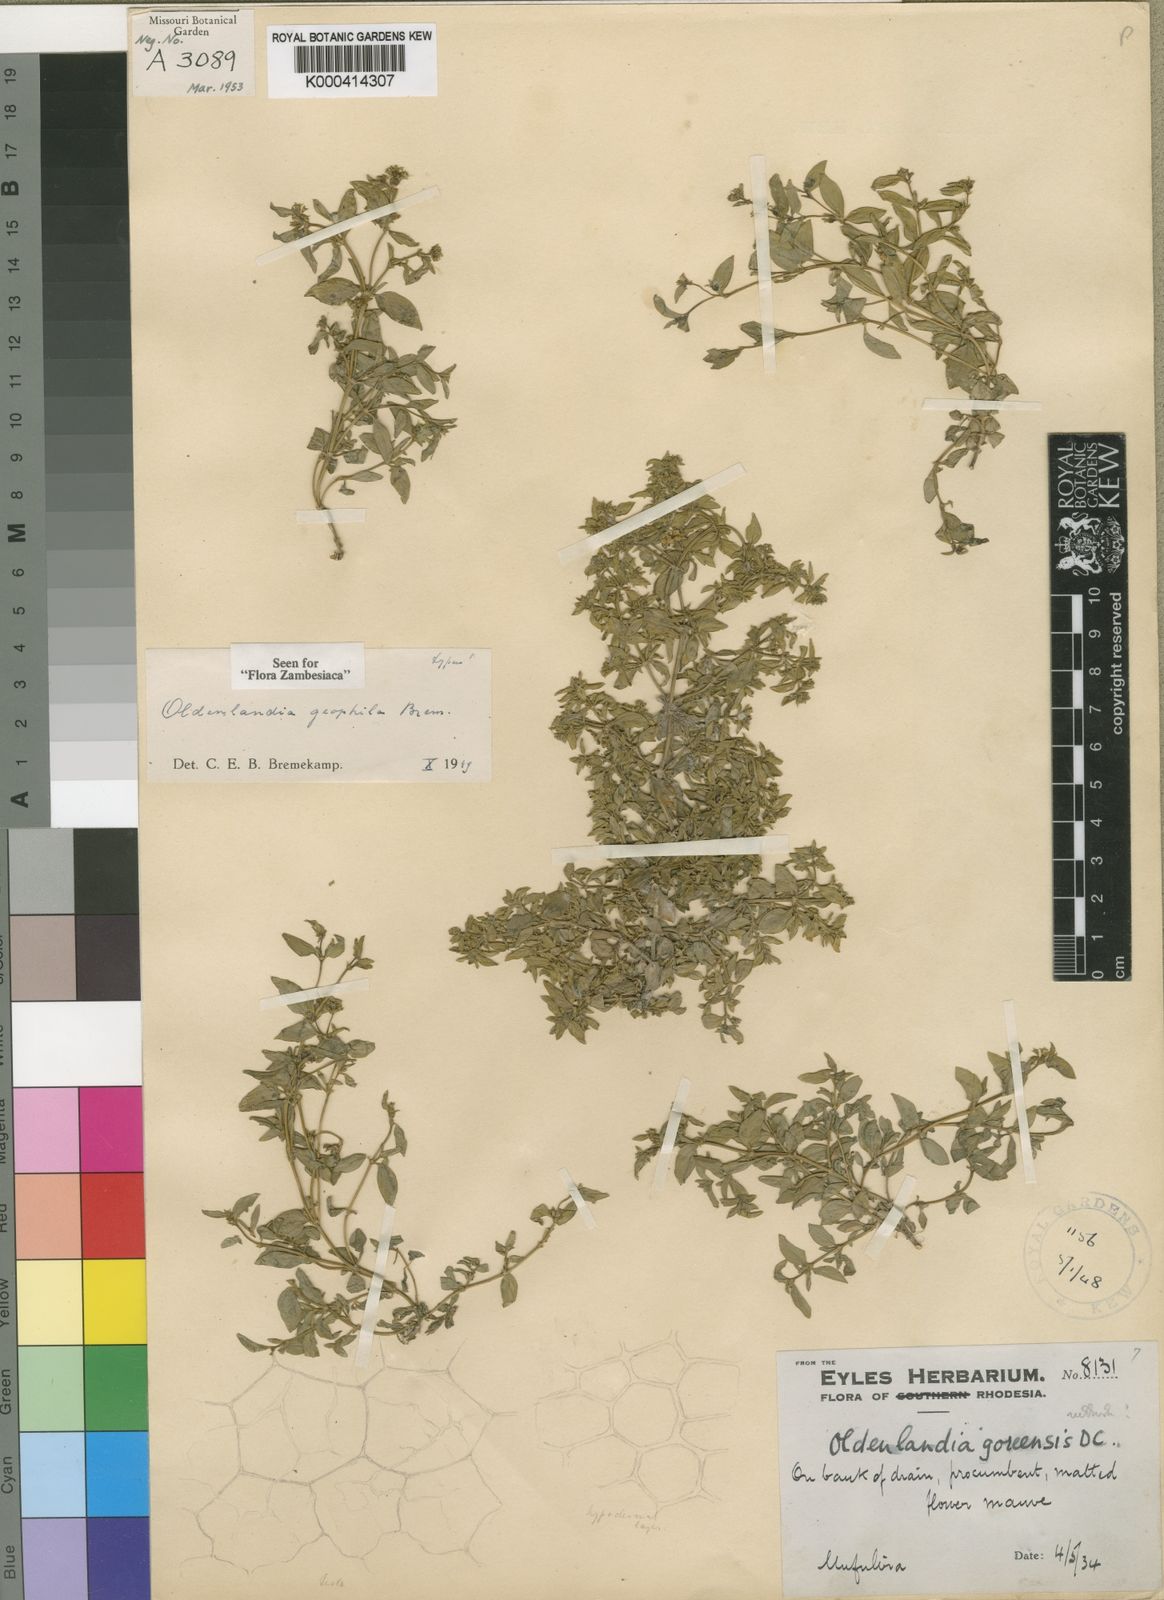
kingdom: Plantae
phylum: Tracheophyta
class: Magnoliopsida
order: Gentianales
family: Rubiaceae
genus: Oldenlandia
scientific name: Oldenlandia geophila
